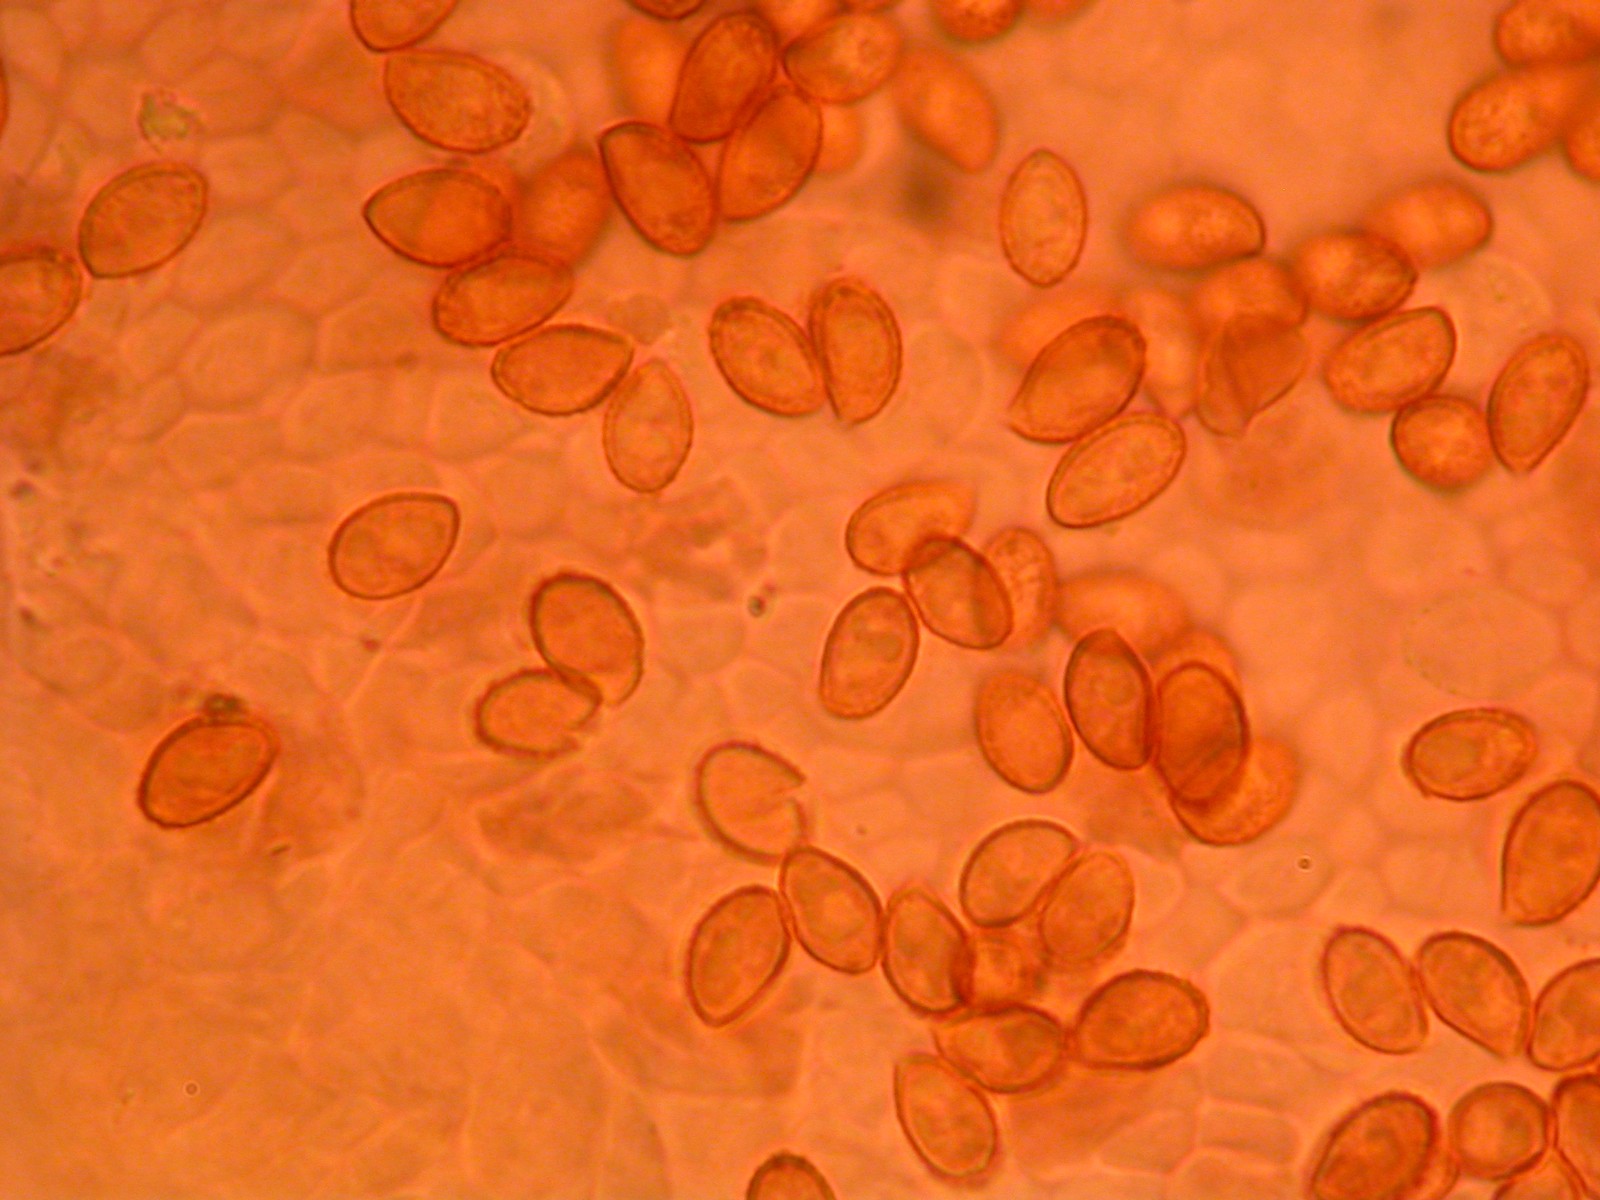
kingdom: Fungi
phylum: Basidiomycota
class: Agaricomycetes
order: Agaricales
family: Cortinariaceae
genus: Cortinarius
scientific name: Cortinarius murinascens
